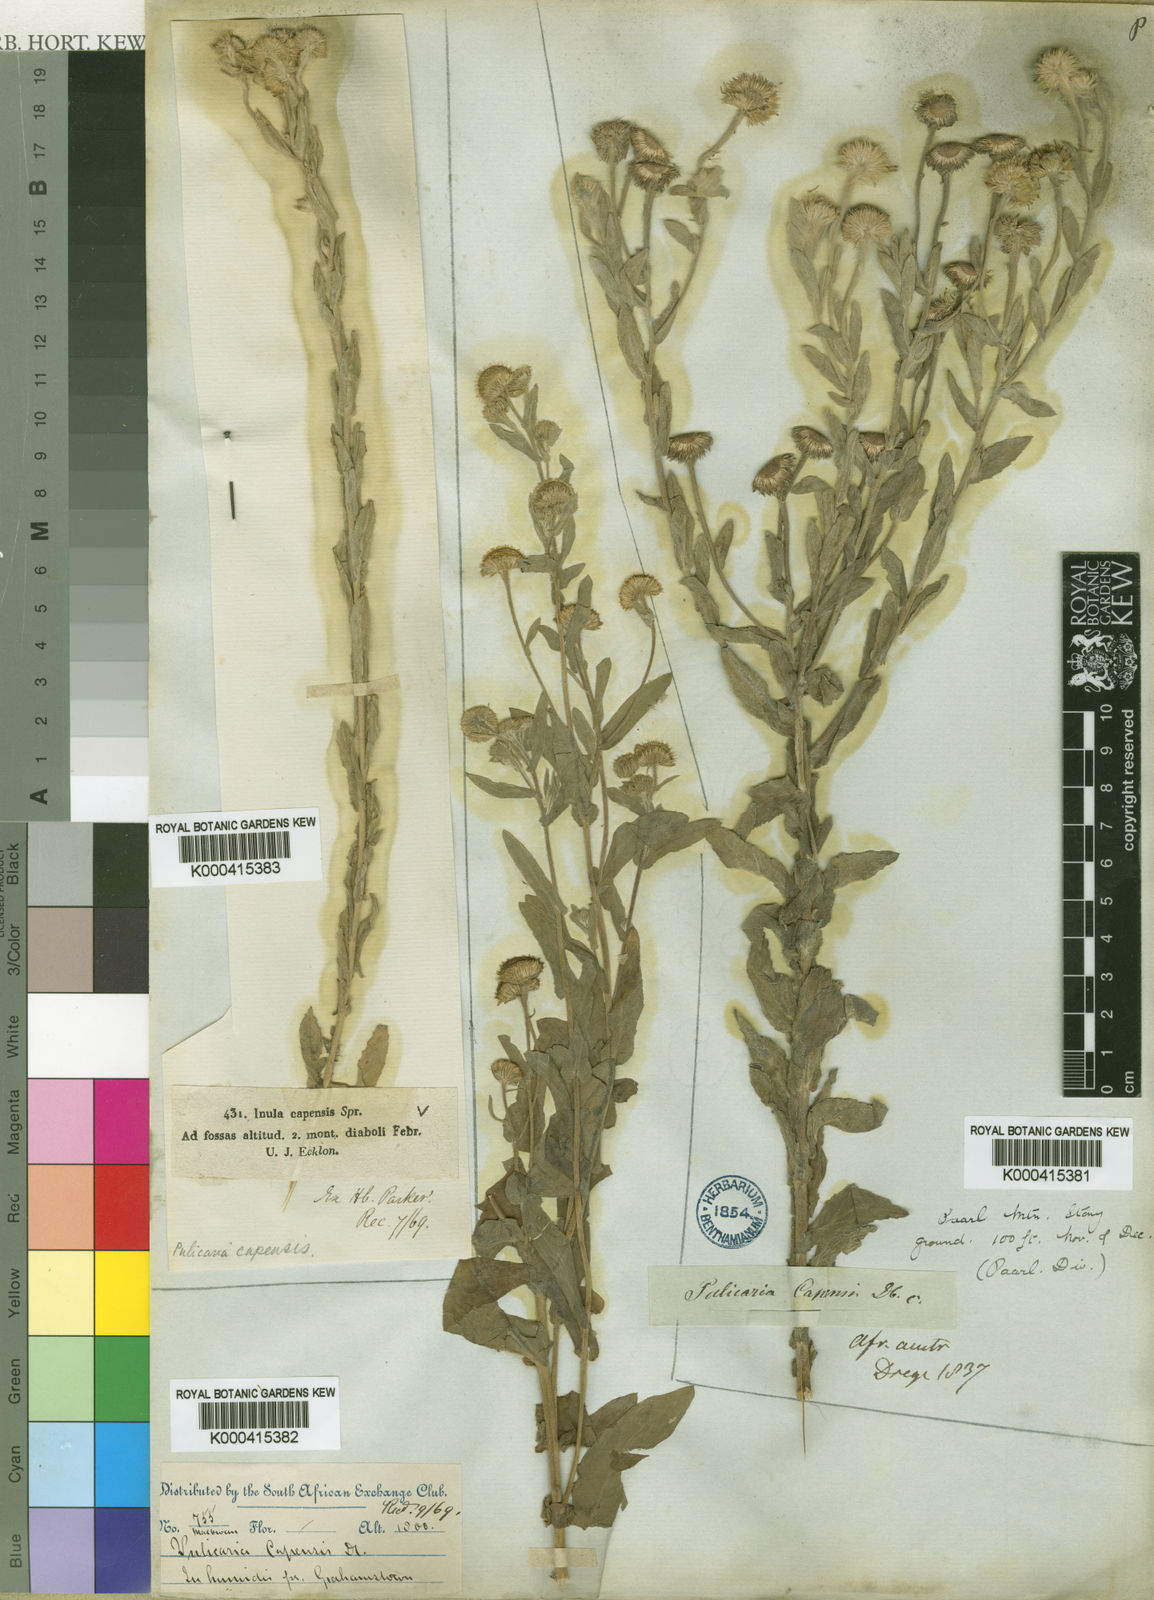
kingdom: Plantae
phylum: Tracheophyta
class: Magnoliopsida
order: Asterales
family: Asteraceae
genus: Pulicaria
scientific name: Pulicaria scabra
